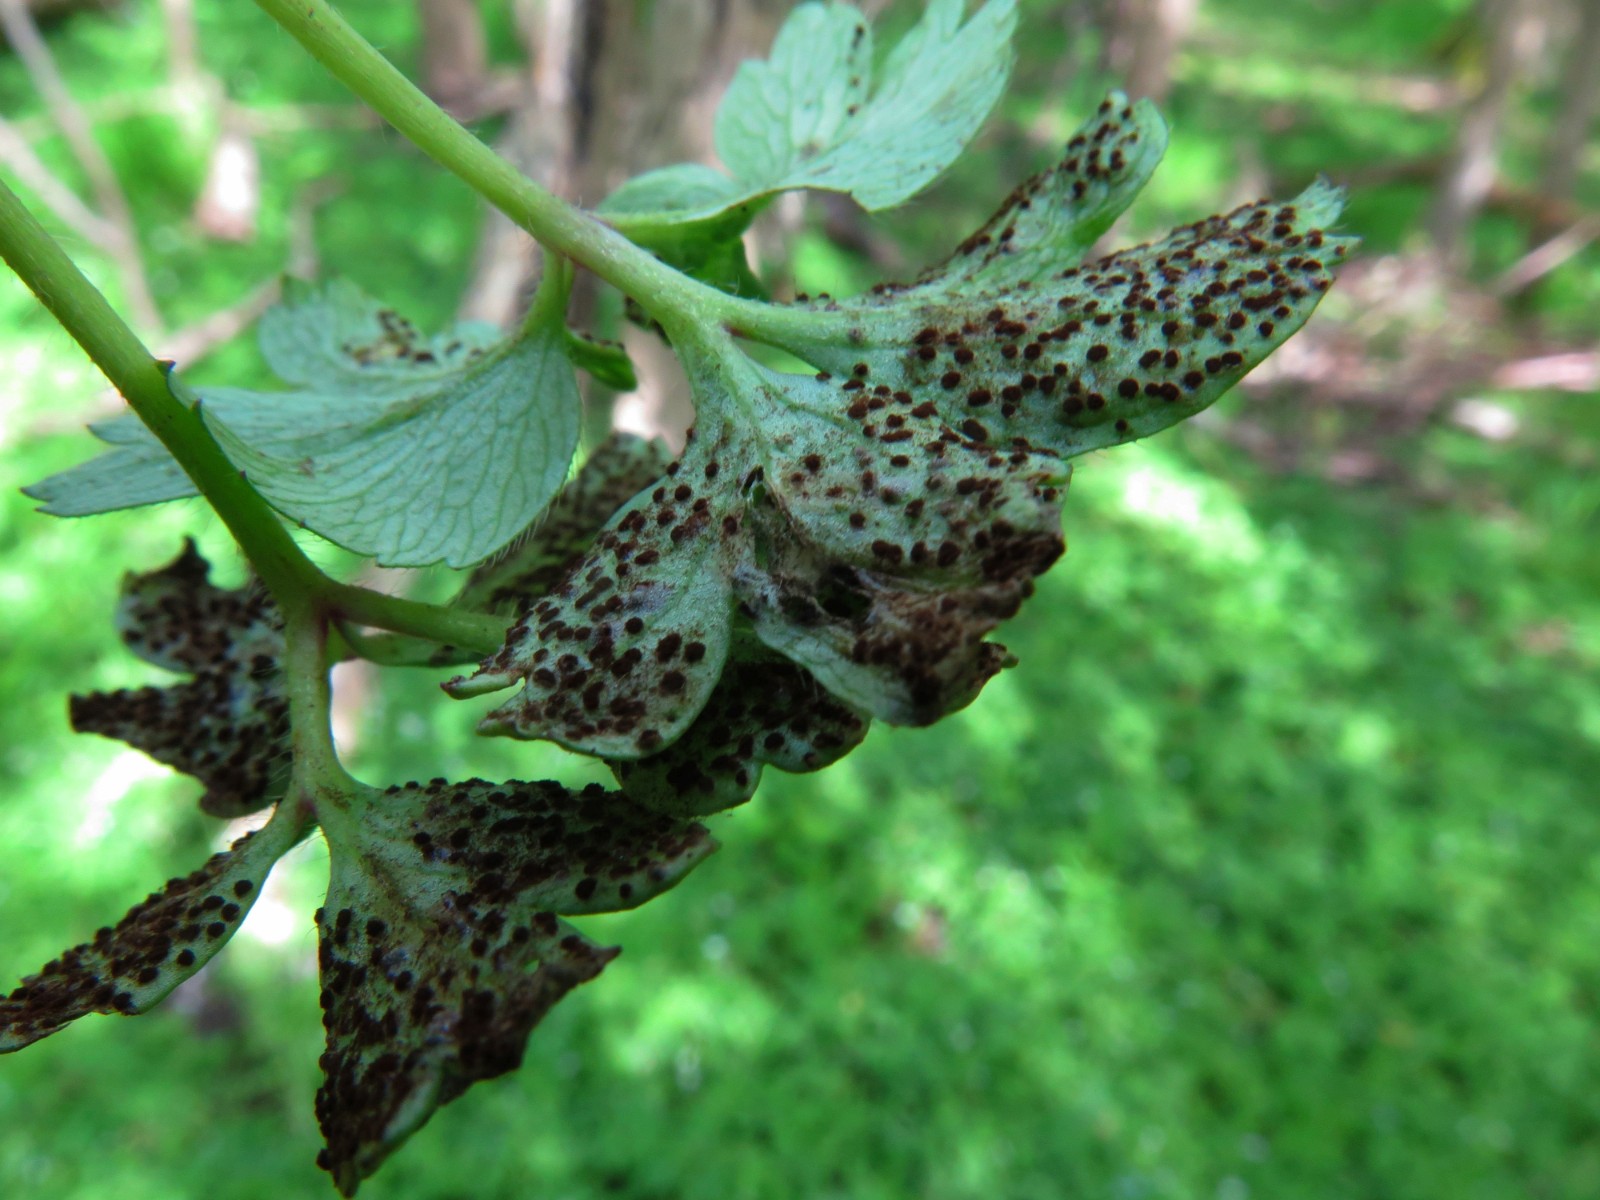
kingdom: Fungi
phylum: Basidiomycota
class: Pucciniomycetes
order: Pucciniales
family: Tranzscheliaceae
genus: Tranzschelia
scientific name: Tranzschelia anemones
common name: anemone-knæksporerust
